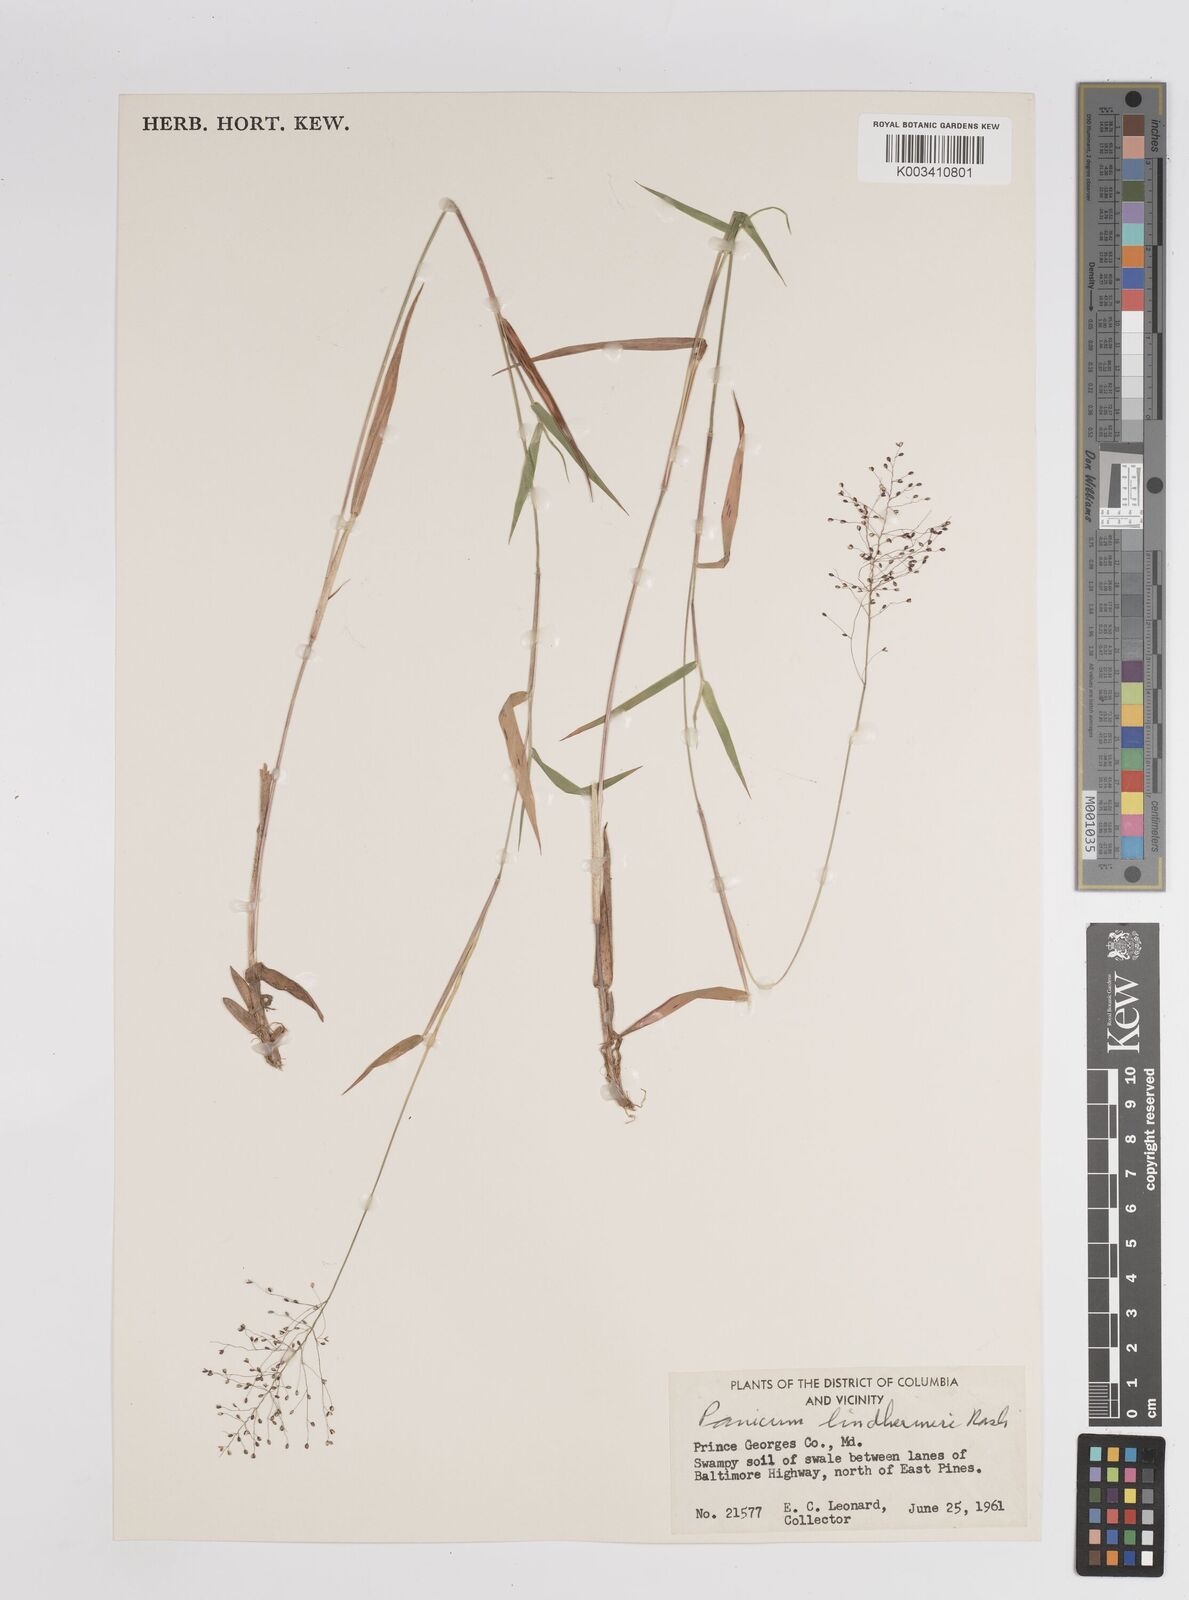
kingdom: Plantae
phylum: Tracheophyta
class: Liliopsida
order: Poales
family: Poaceae
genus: Dichanthelium
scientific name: Dichanthelium acuminatum
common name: Hairy panic grass
